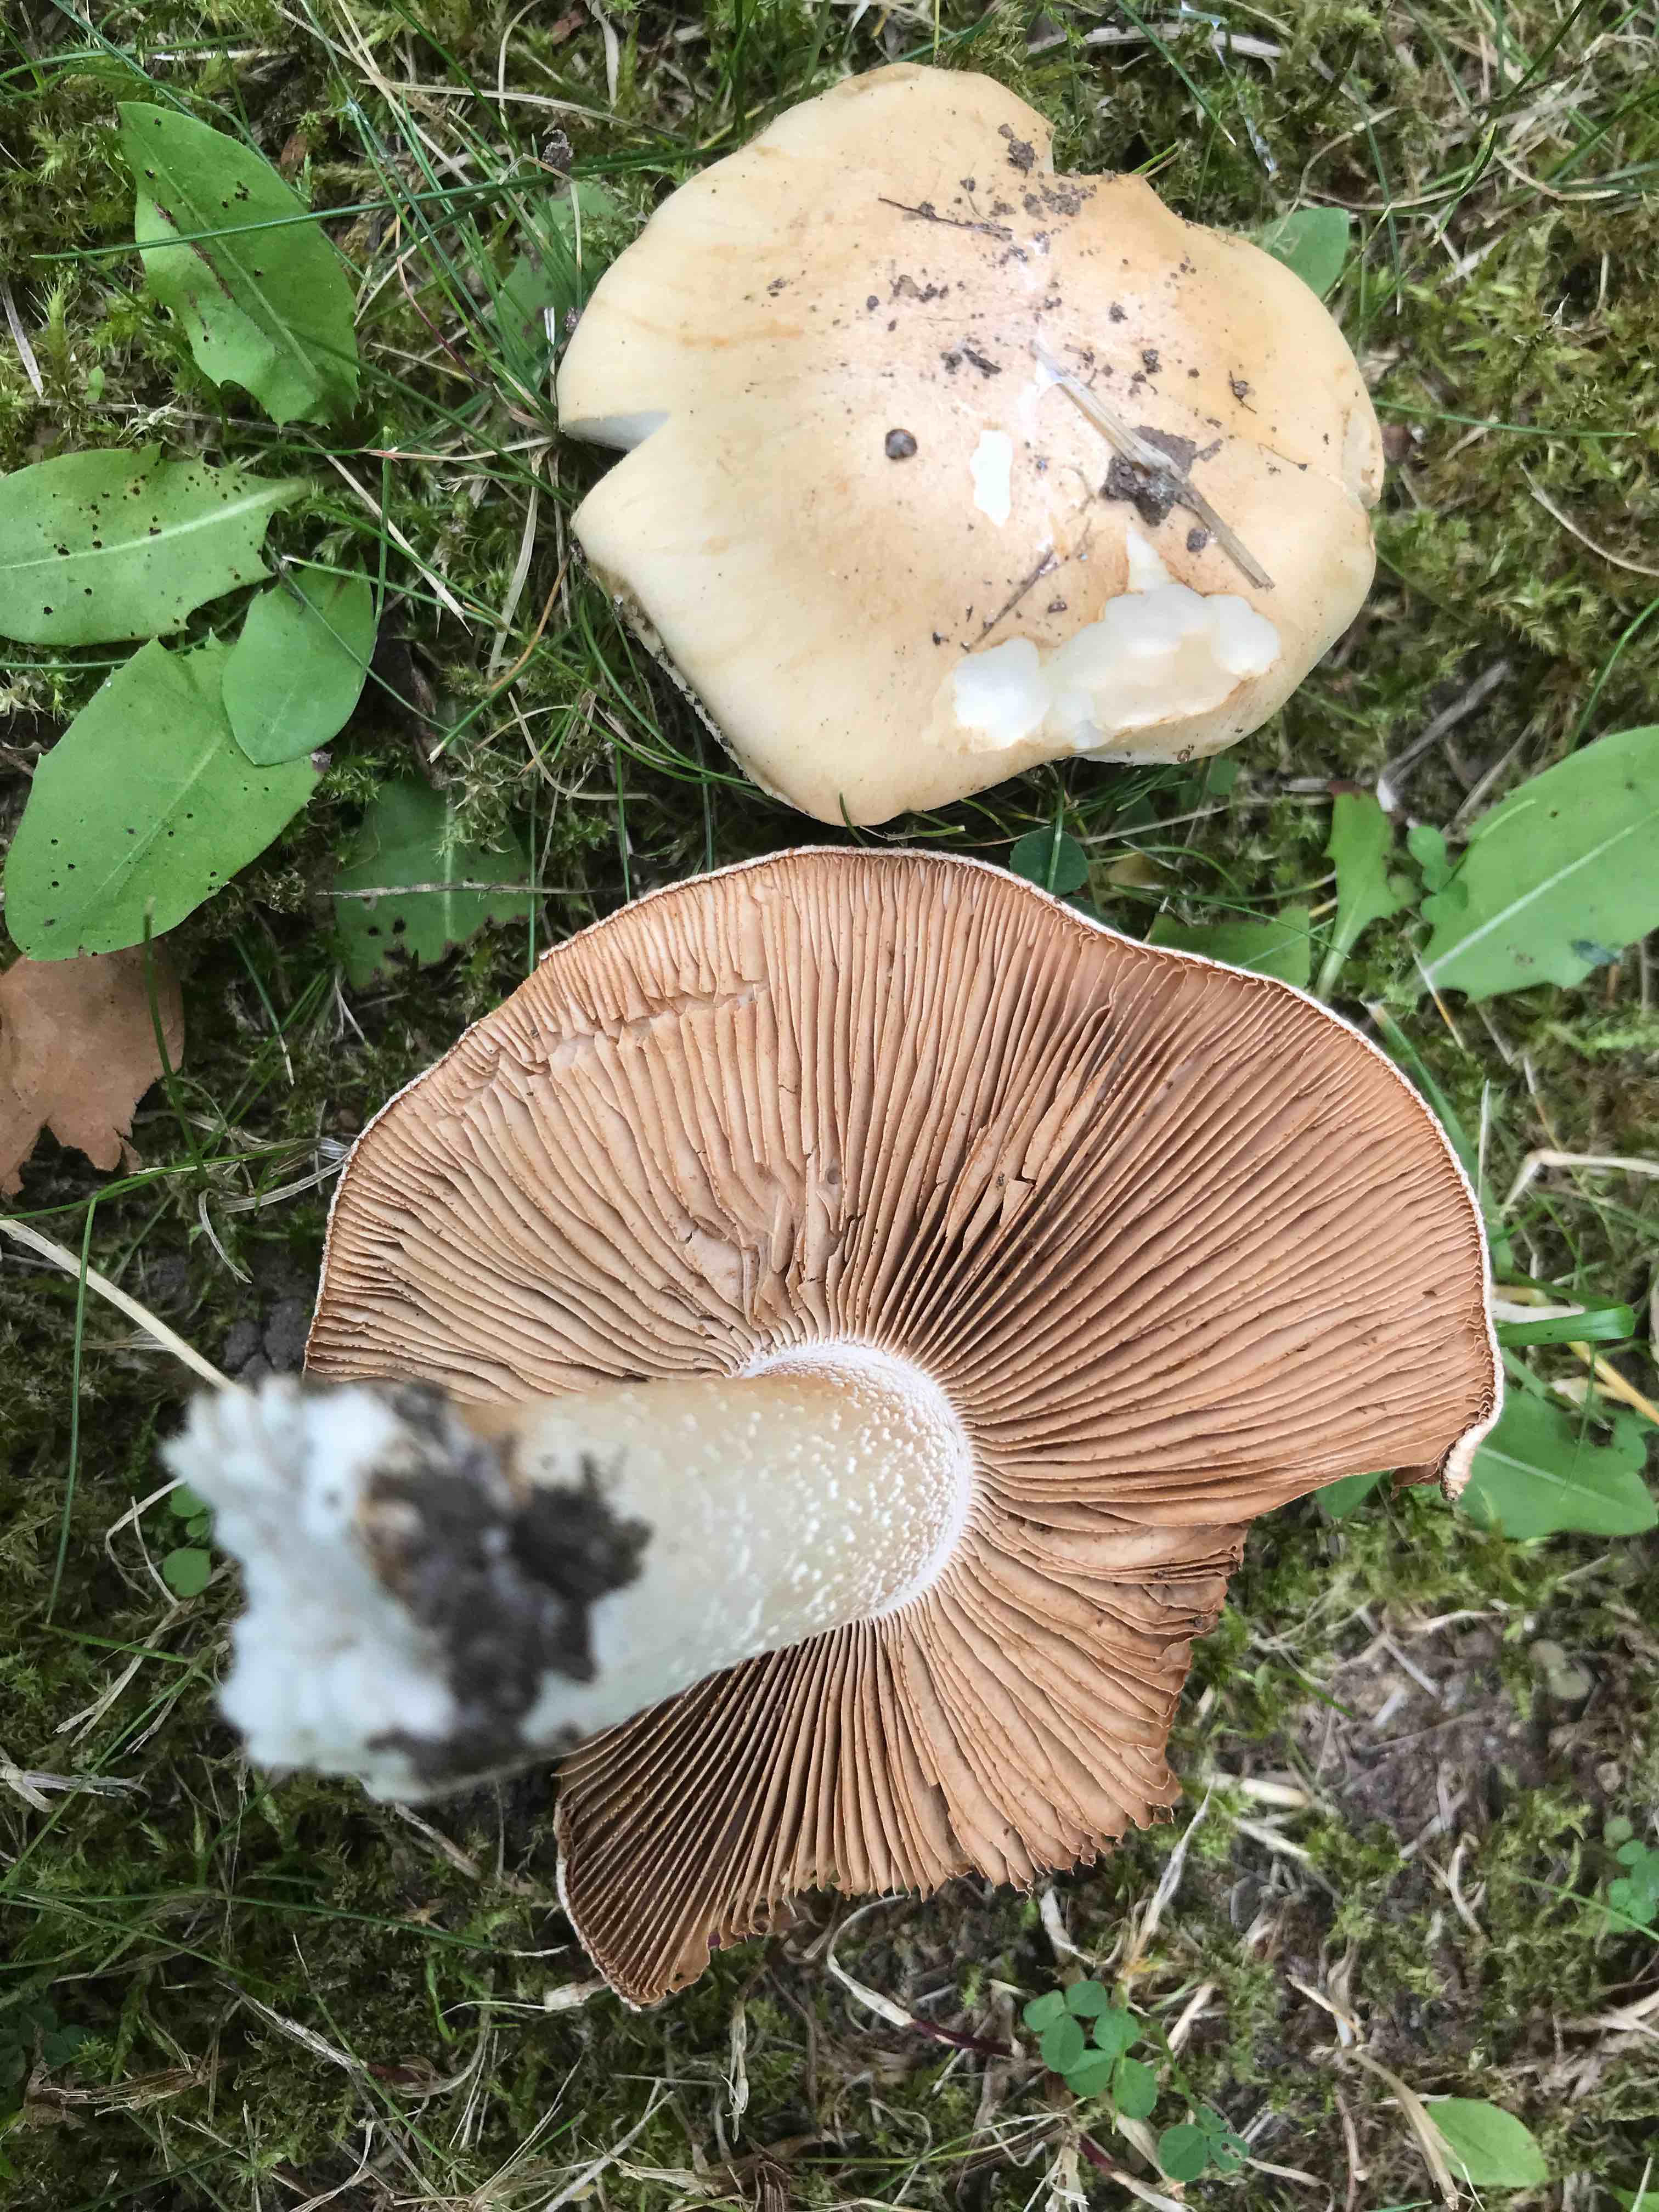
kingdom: Fungi
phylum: Basidiomycota
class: Agaricomycetes
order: Agaricales
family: Hymenogastraceae
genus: Hebeloma
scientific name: Hebeloma
